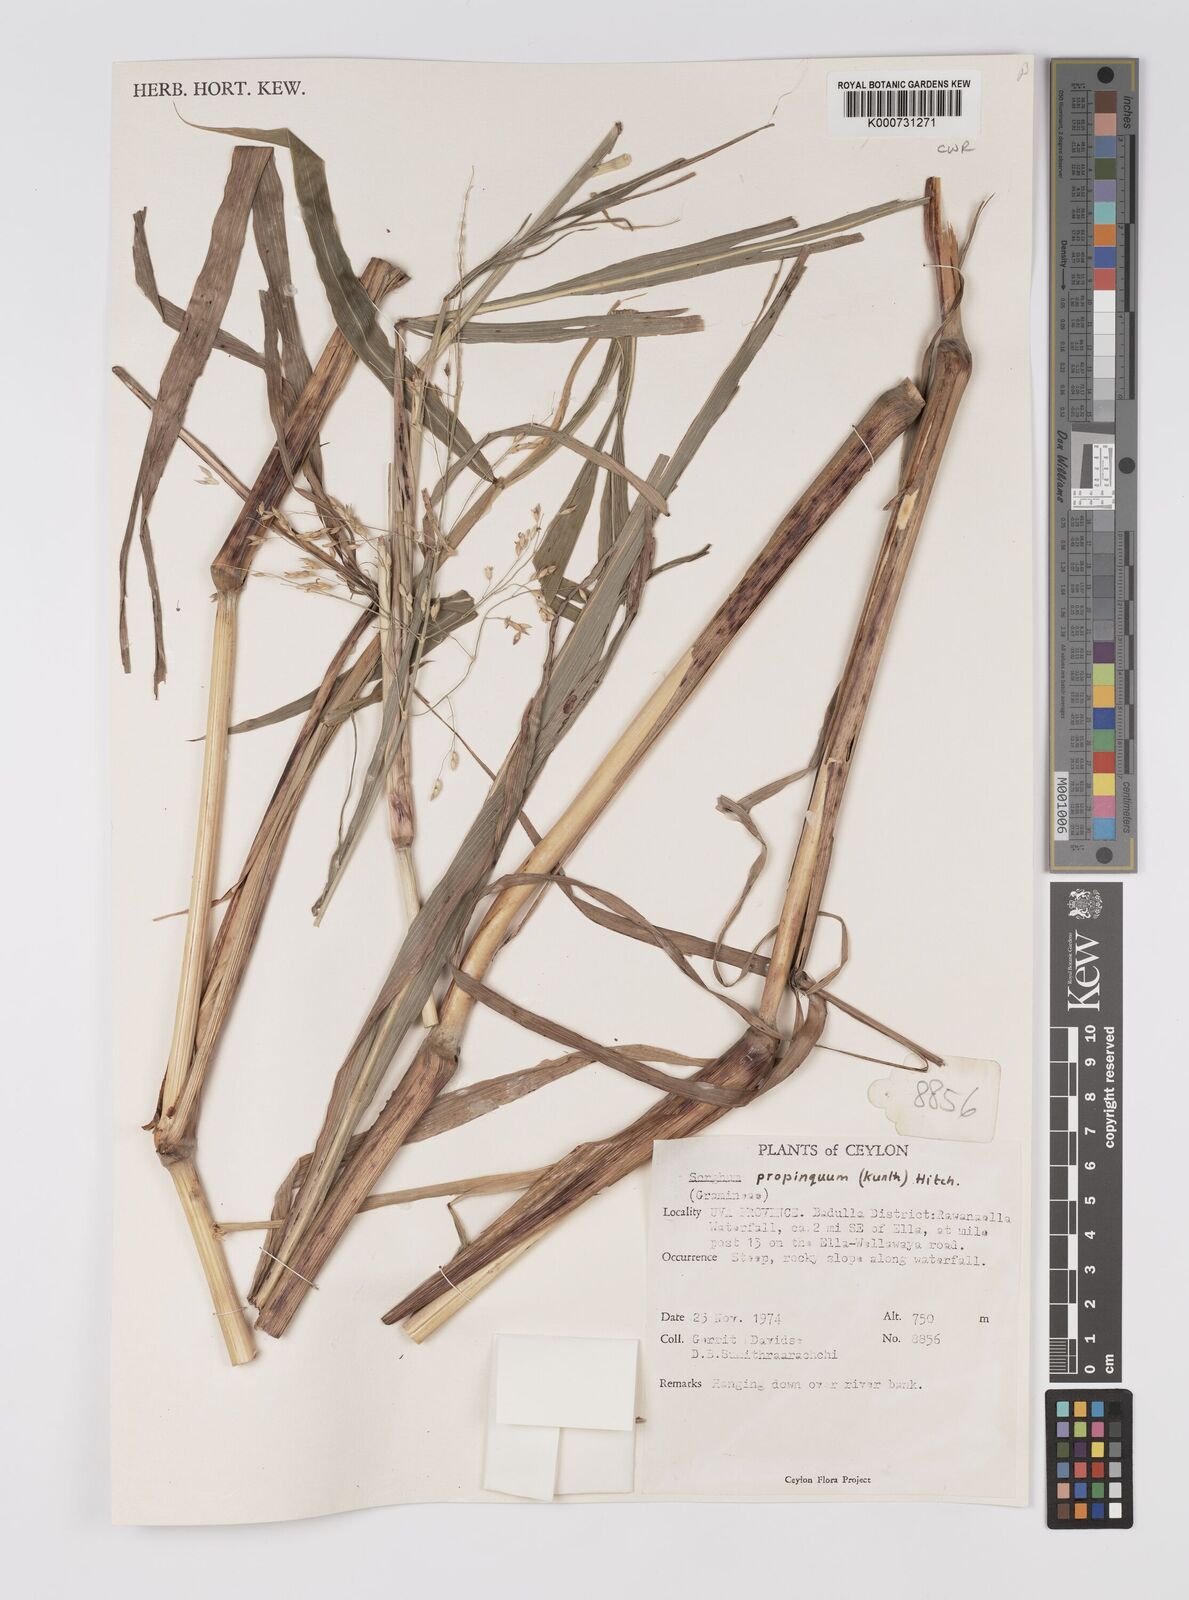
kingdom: Plantae
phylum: Tracheophyta
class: Liliopsida
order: Poales
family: Poaceae
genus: Sorghum
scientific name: Sorghum propinquum
